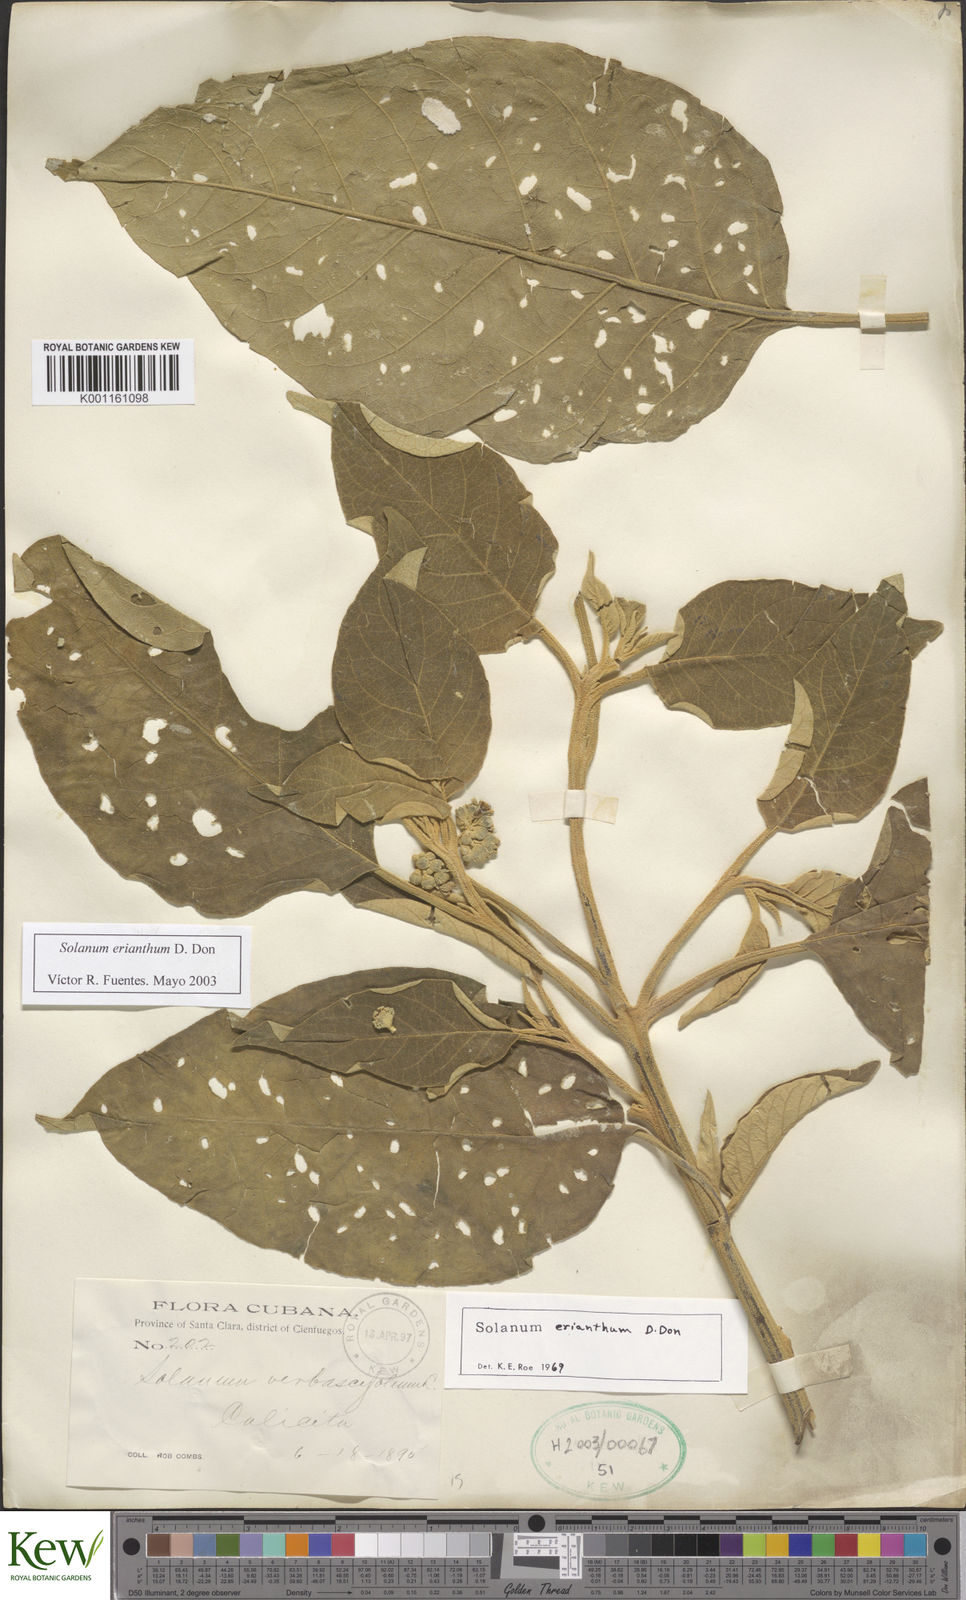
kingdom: Plantae
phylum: Tracheophyta
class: Magnoliopsida
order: Solanales
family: Solanaceae
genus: Solanum
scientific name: Solanum erianthum
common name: Tobacco-tree
